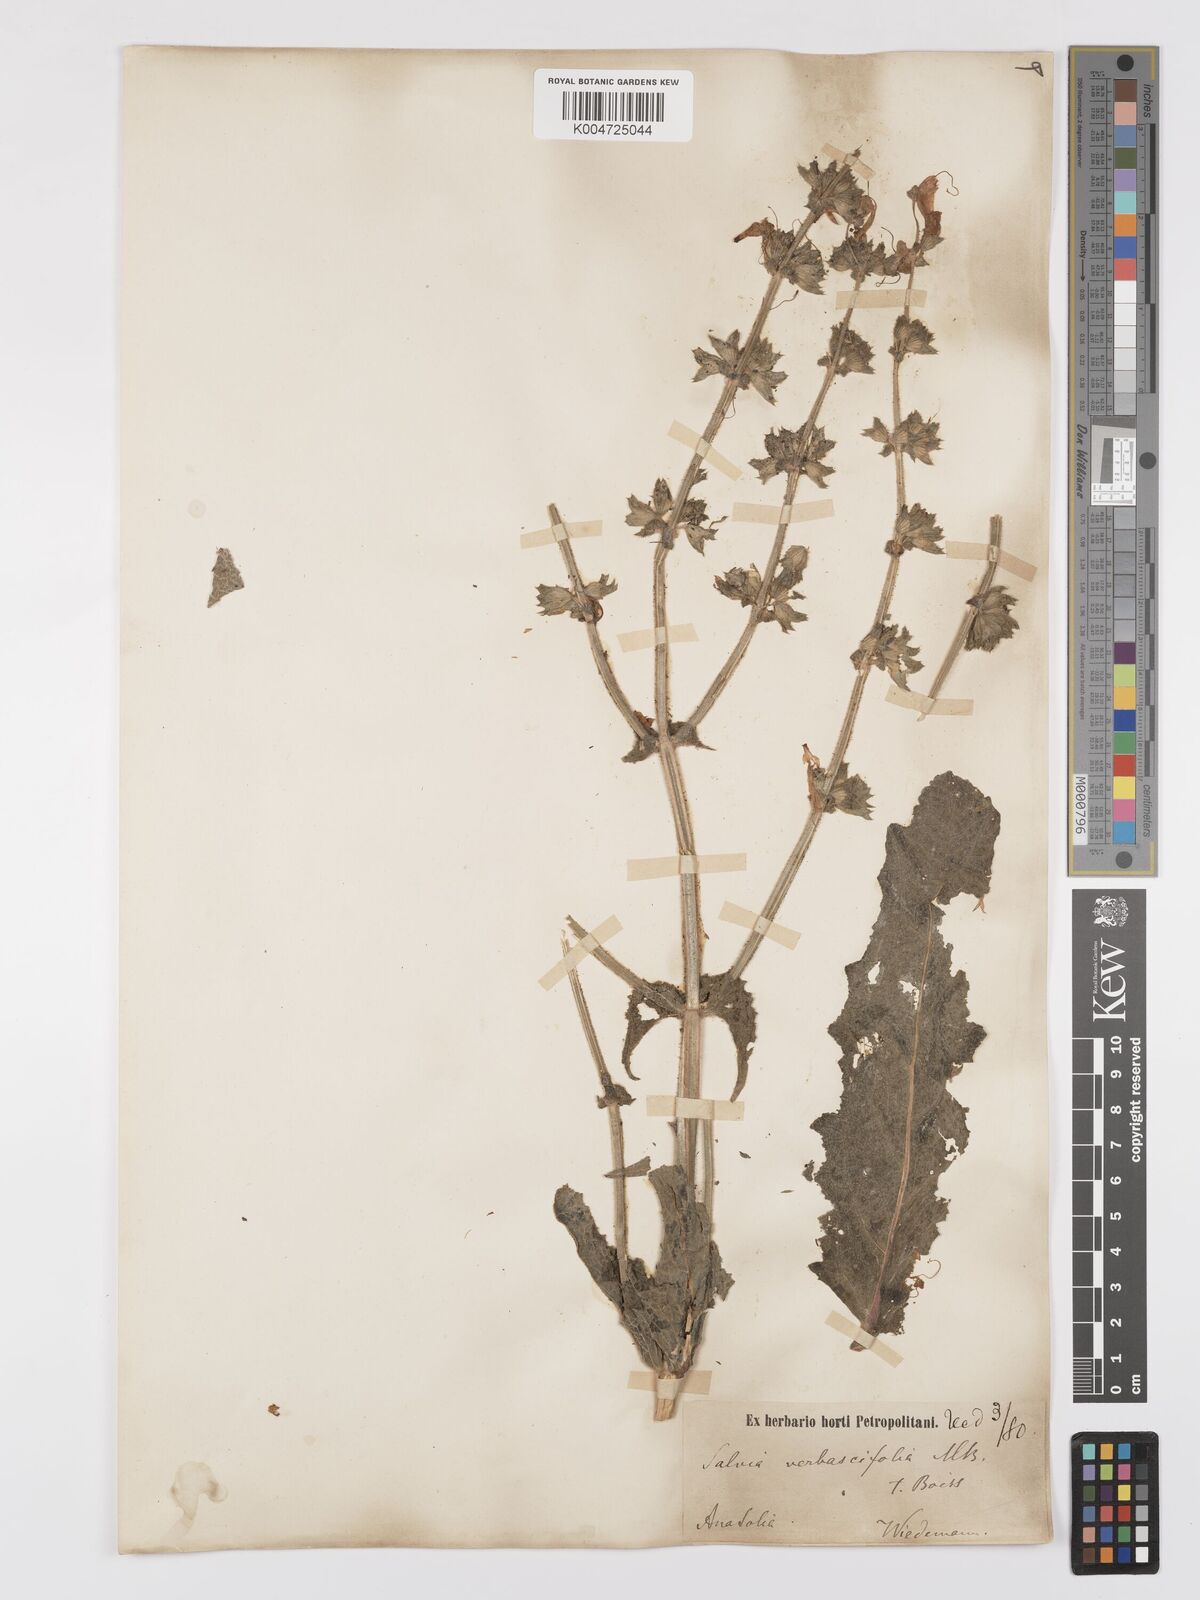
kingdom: Plantae
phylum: Tracheophyta
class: Magnoliopsida
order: Lamiales
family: Lamiaceae
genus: Salvia
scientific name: Salvia verbascifolia
